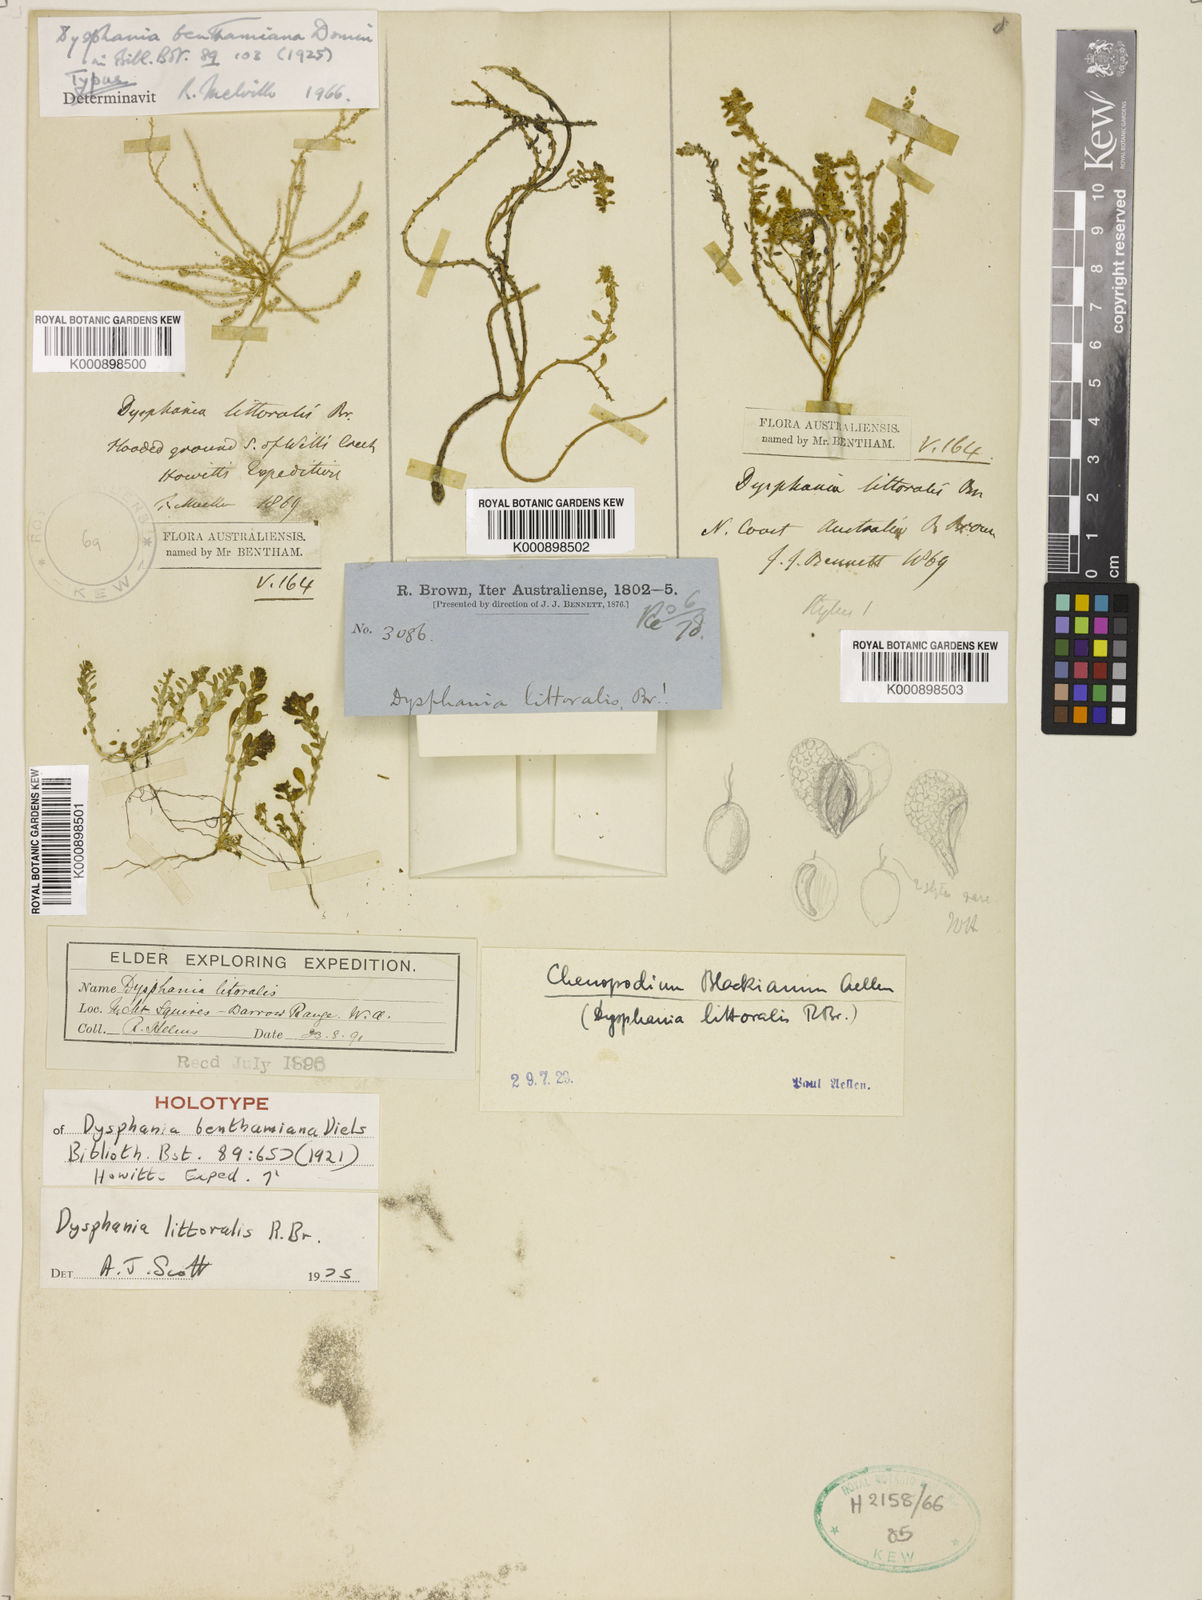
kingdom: Plantae
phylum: Tracheophyta
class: Magnoliopsida
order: Caryophyllales
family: Amaranthaceae
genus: Dysphania
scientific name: Dysphania
